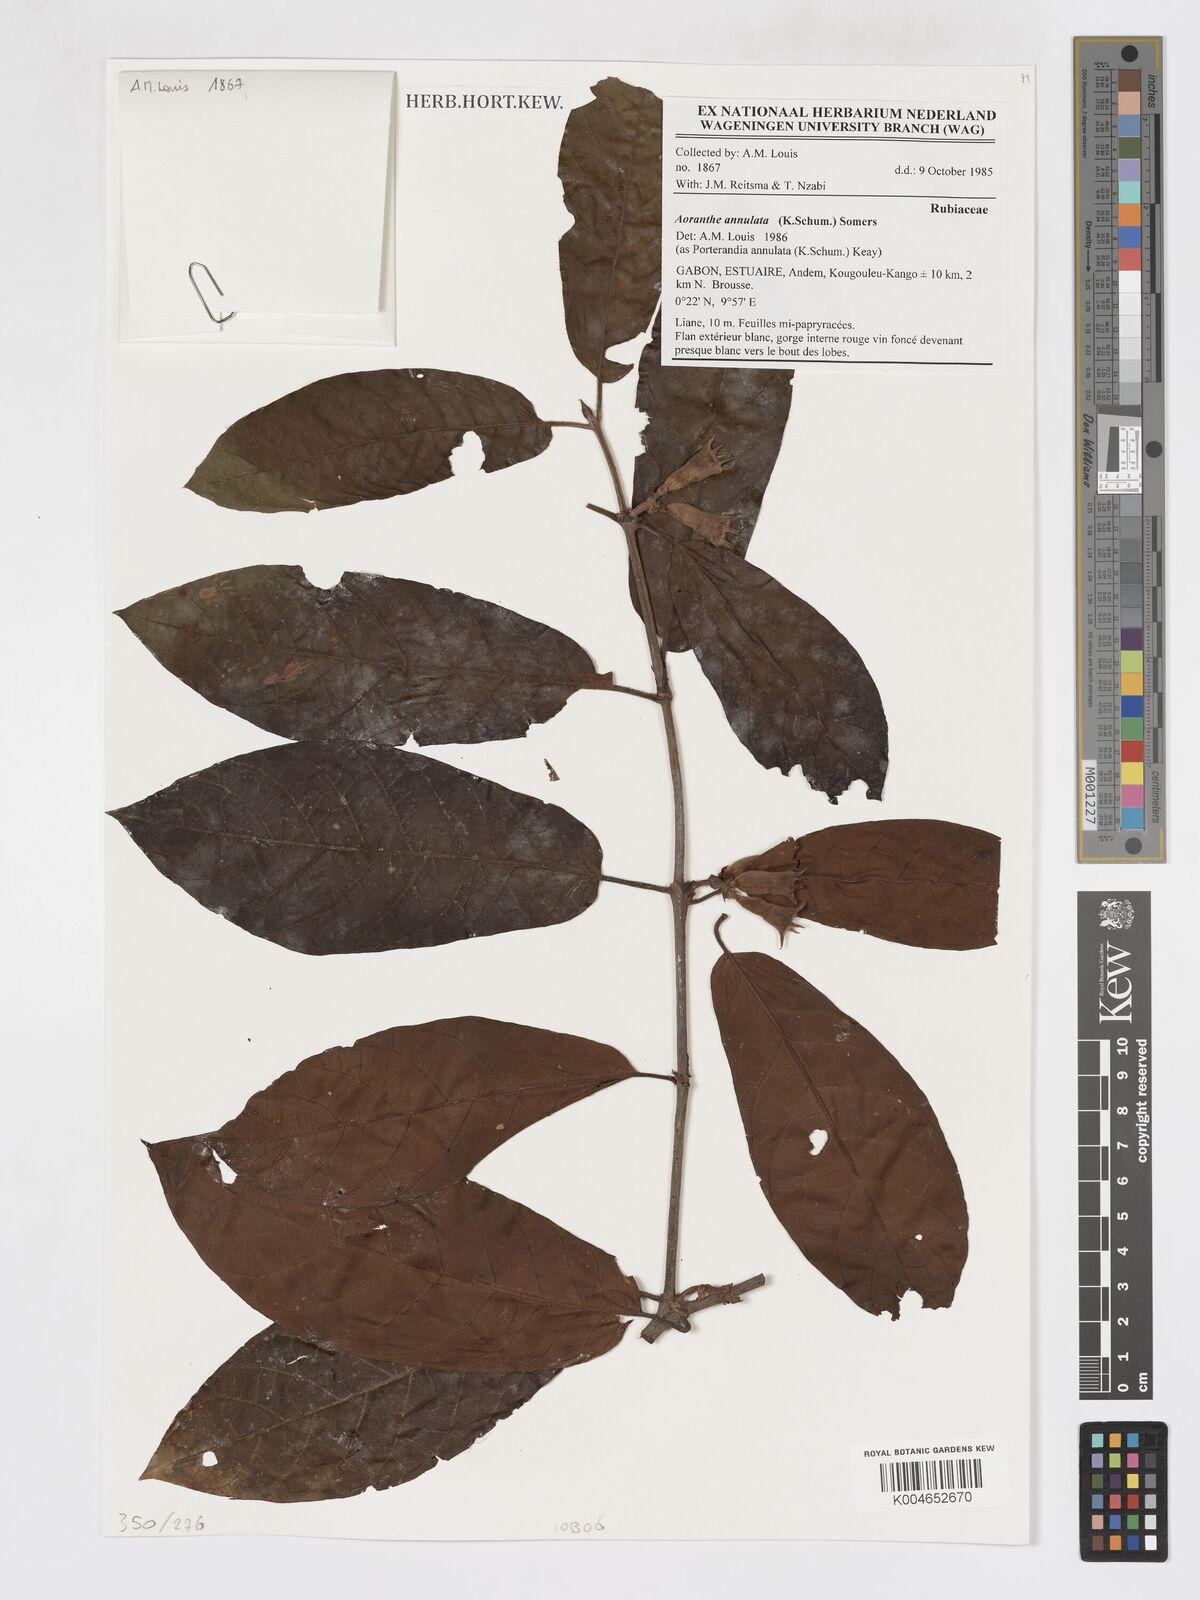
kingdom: Plantae
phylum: Tracheophyta
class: Magnoliopsida
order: Gentianales
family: Rubiaceae
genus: Aoranthe
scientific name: Aoranthe annulata
